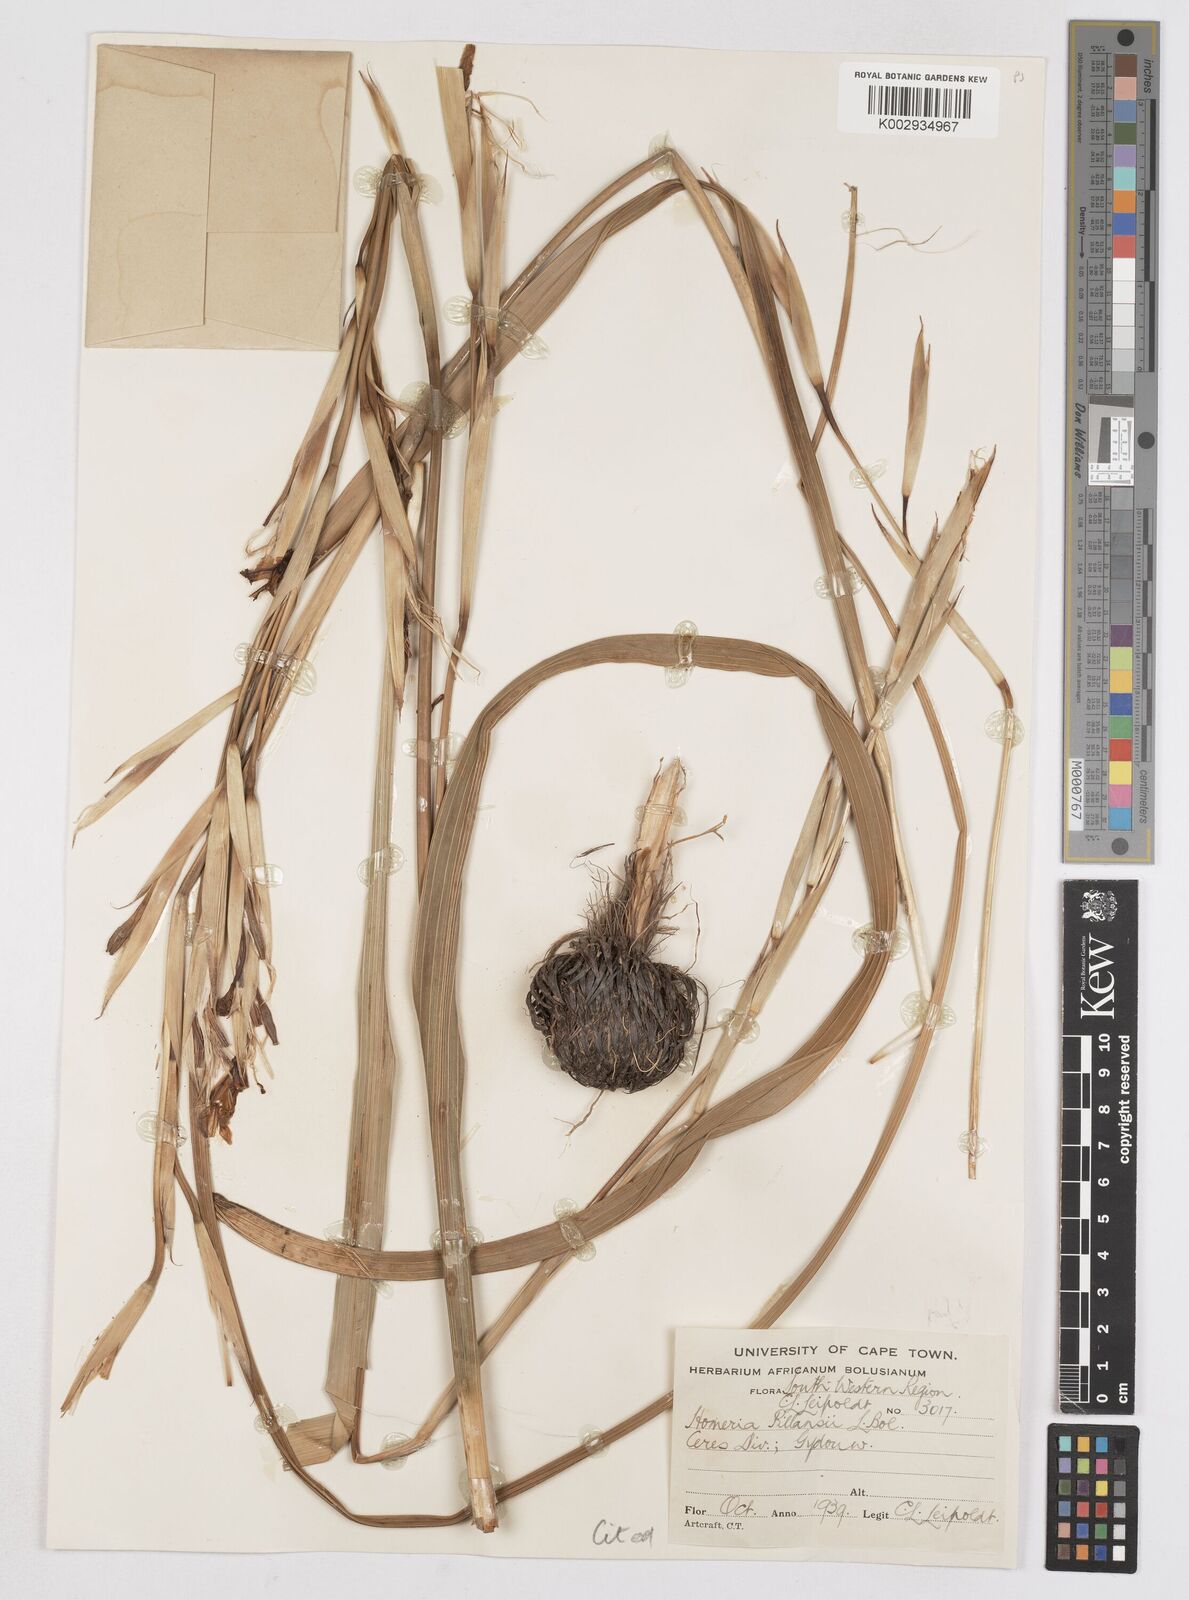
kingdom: Plantae
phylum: Tracheophyta
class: Liliopsida
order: Asparagales
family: Iridaceae
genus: Moraea
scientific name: Moraea cookii
